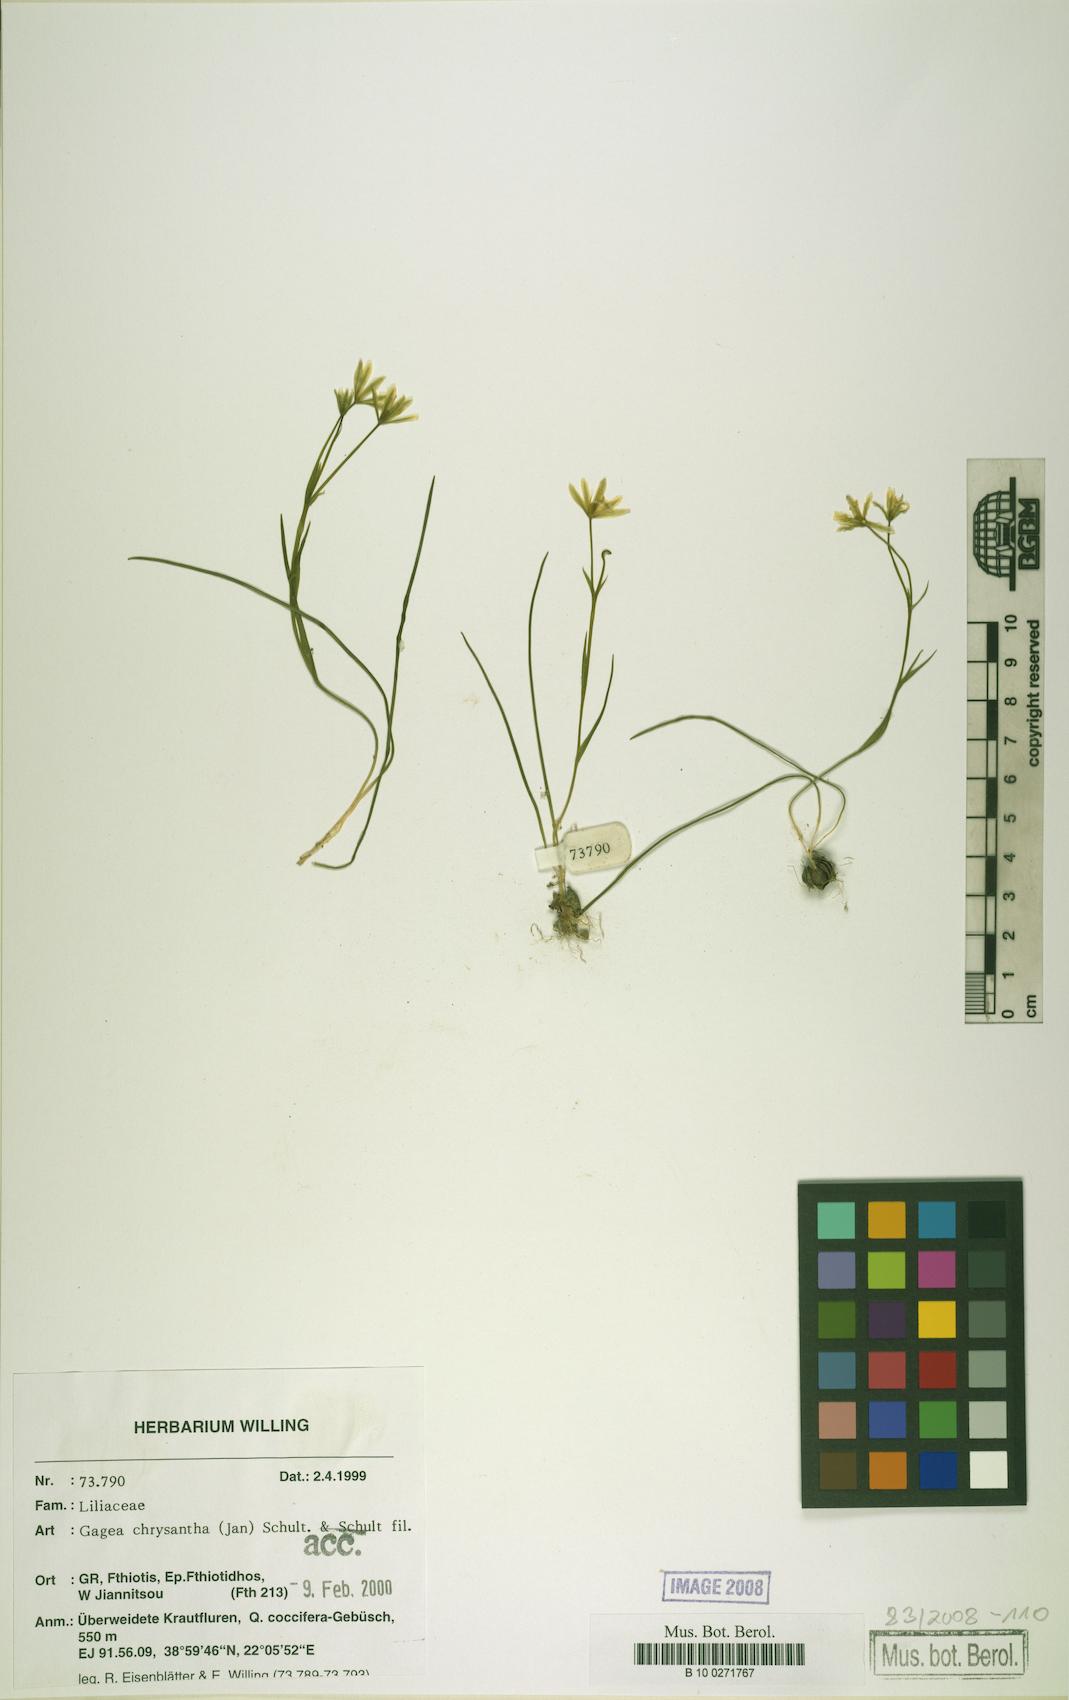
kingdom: Plantae
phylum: Tracheophyta
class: Liliopsida
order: Liliales
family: Liliaceae
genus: Gagea
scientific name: Gagea chrysantha
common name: Golden gagea
